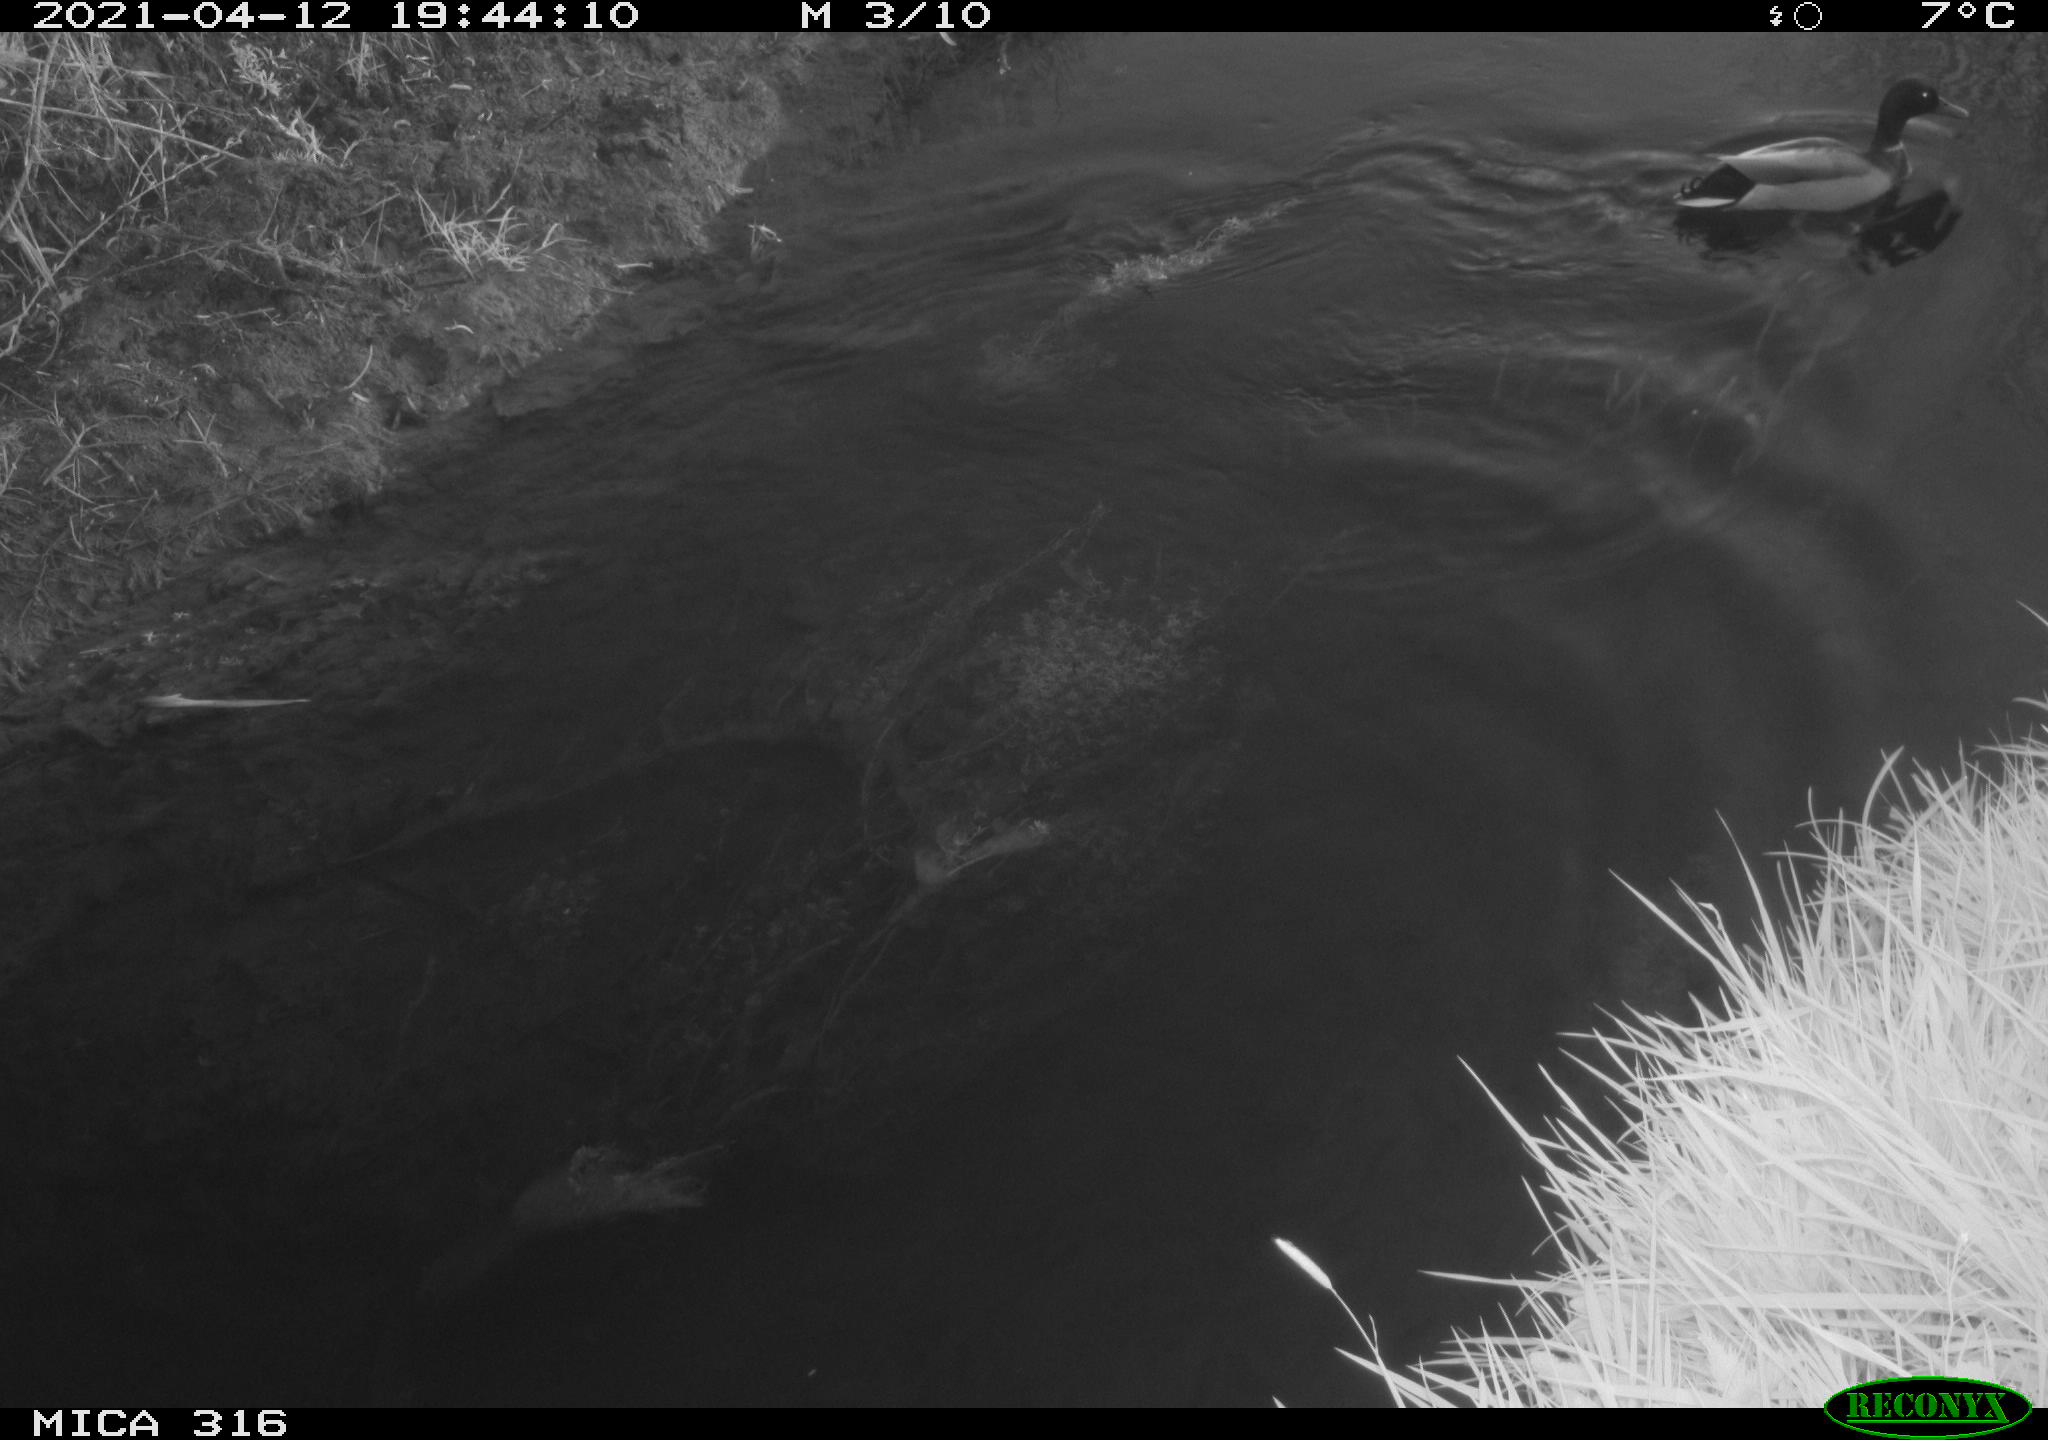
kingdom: Animalia
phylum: Chordata
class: Aves
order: Anseriformes
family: Anatidae
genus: Anas
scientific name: Anas platyrhynchos
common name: Mallard
